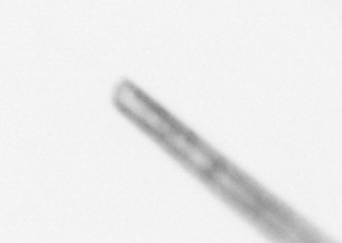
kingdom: Chromista
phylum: Ochrophyta
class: Bacillariophyceae
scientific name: Bacillariophyceae
